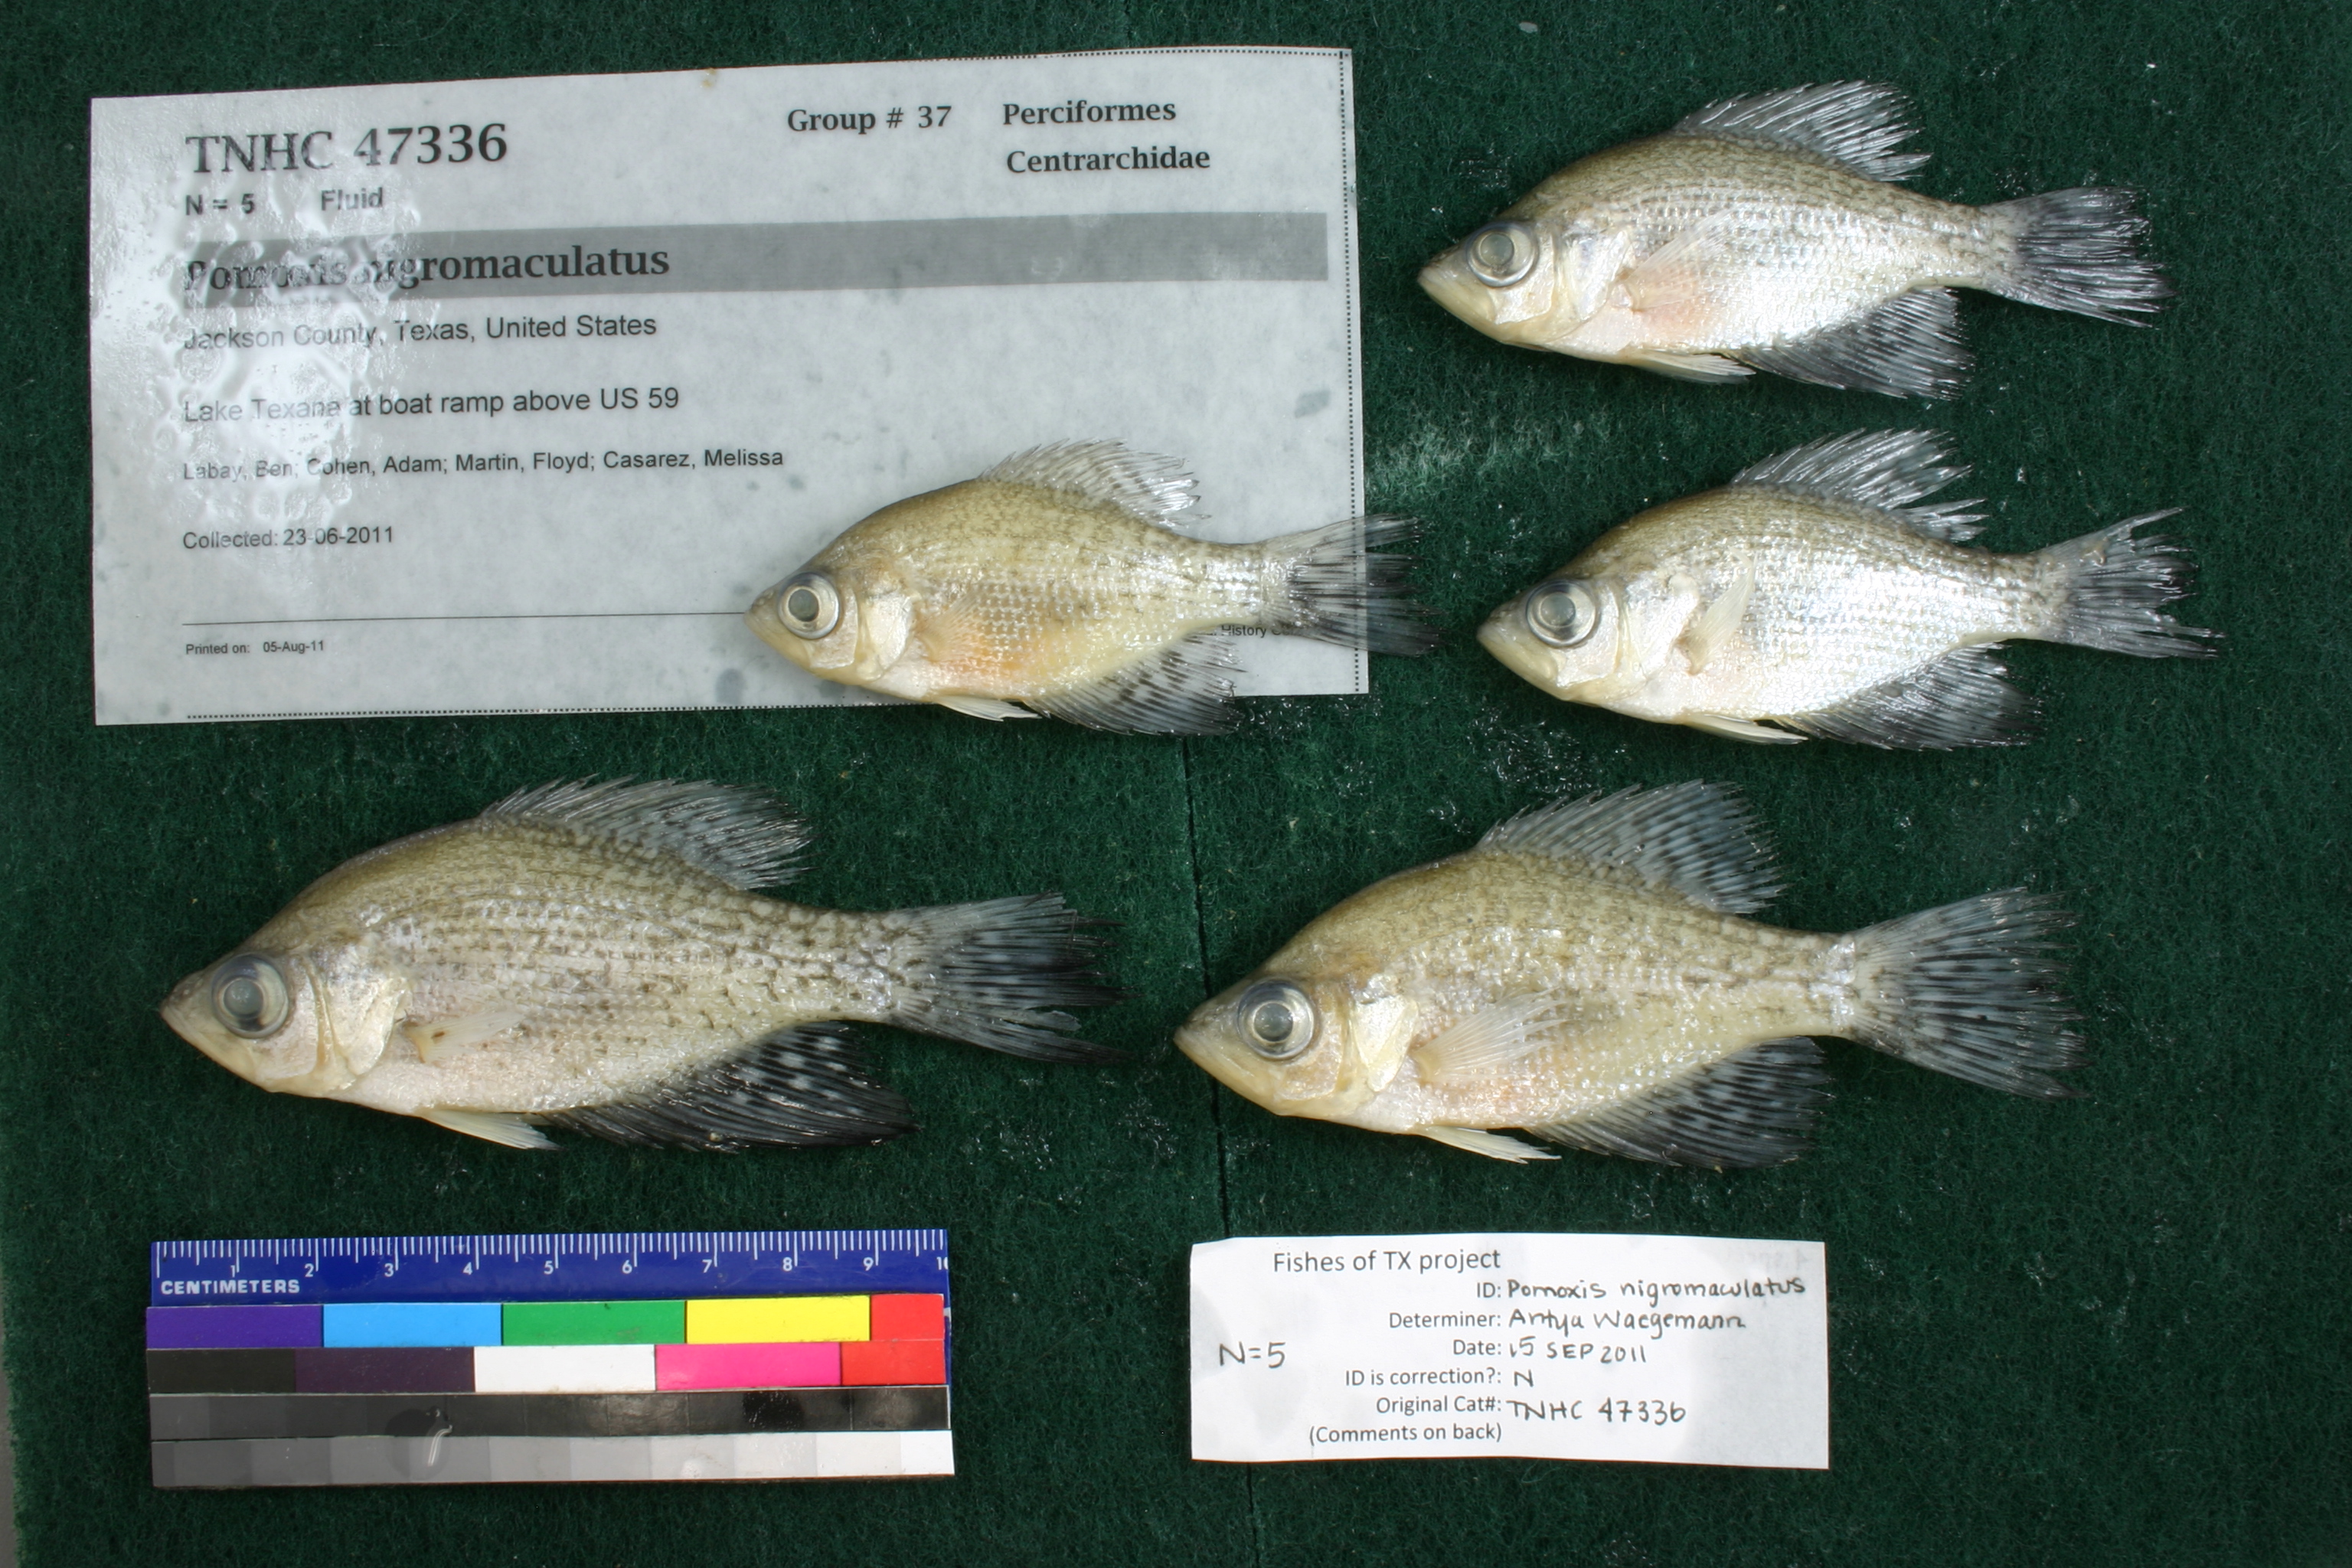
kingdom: Animalia
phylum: Chordata
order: Perciformes
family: Centrarchidae
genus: Pomoxis
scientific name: Pomoxis nigromaculatus
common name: Black crappie
